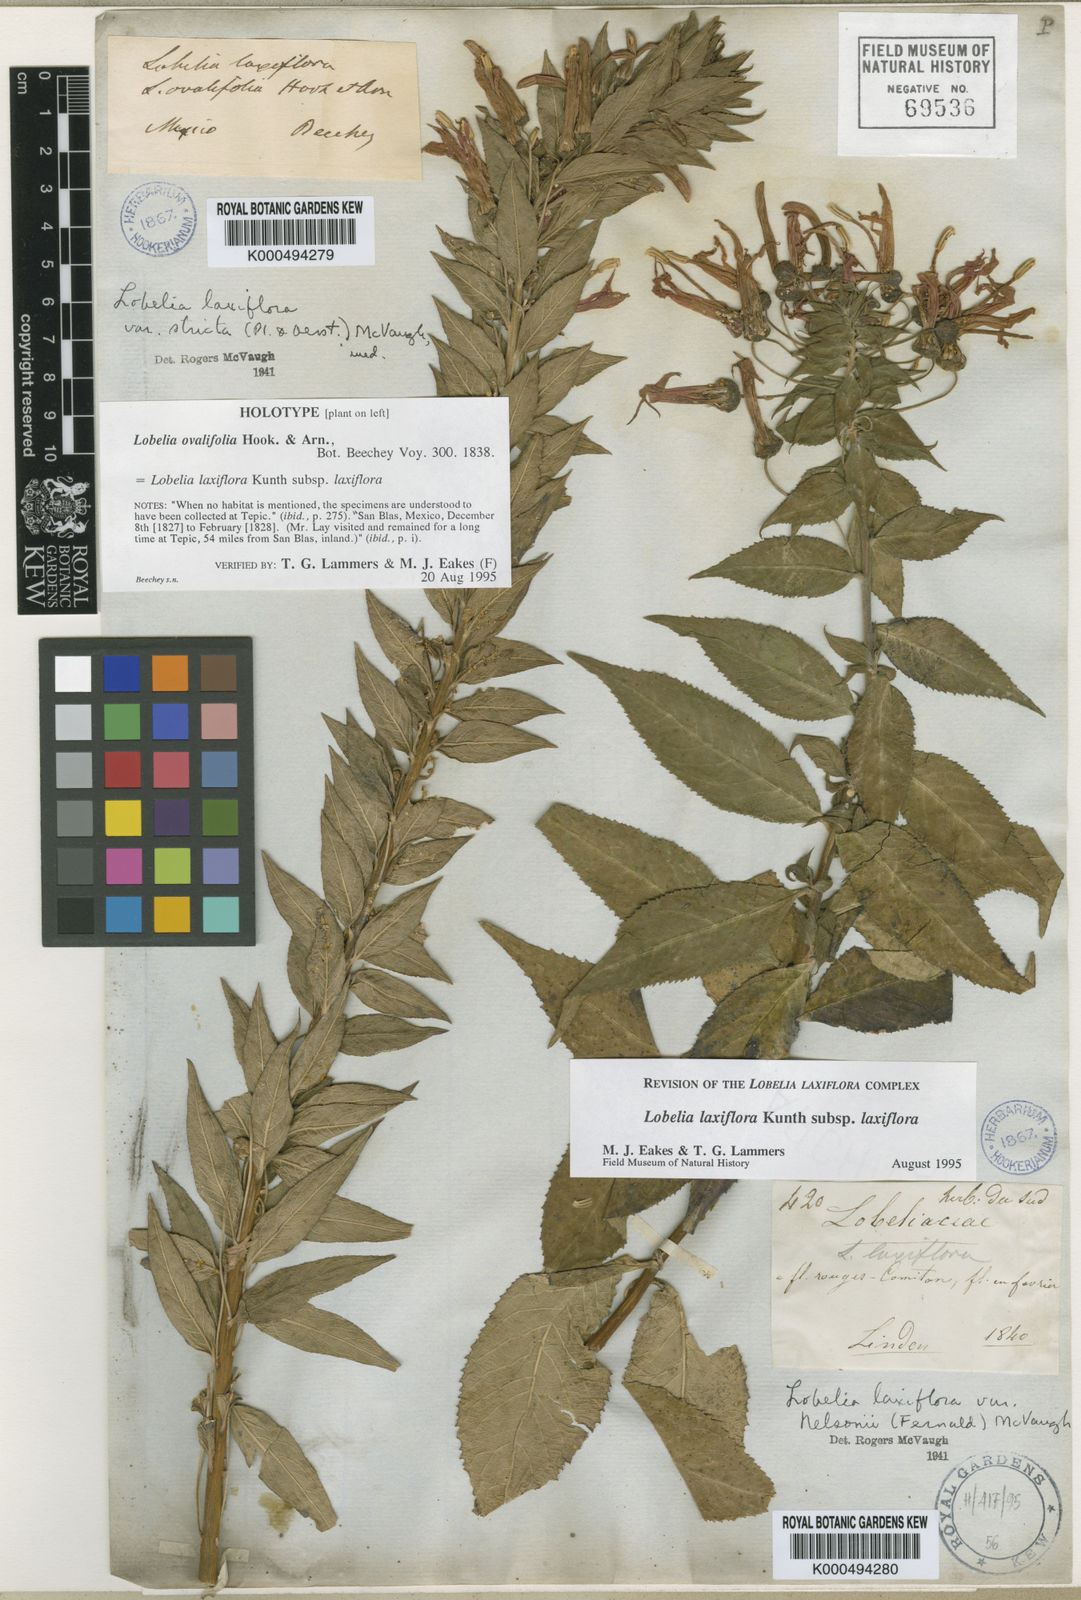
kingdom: Plantae
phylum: Tracheophyta
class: Magnoliopsida
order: Asterales
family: Campanulaceae
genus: Lobelia
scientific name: Lobelia laxiflora
